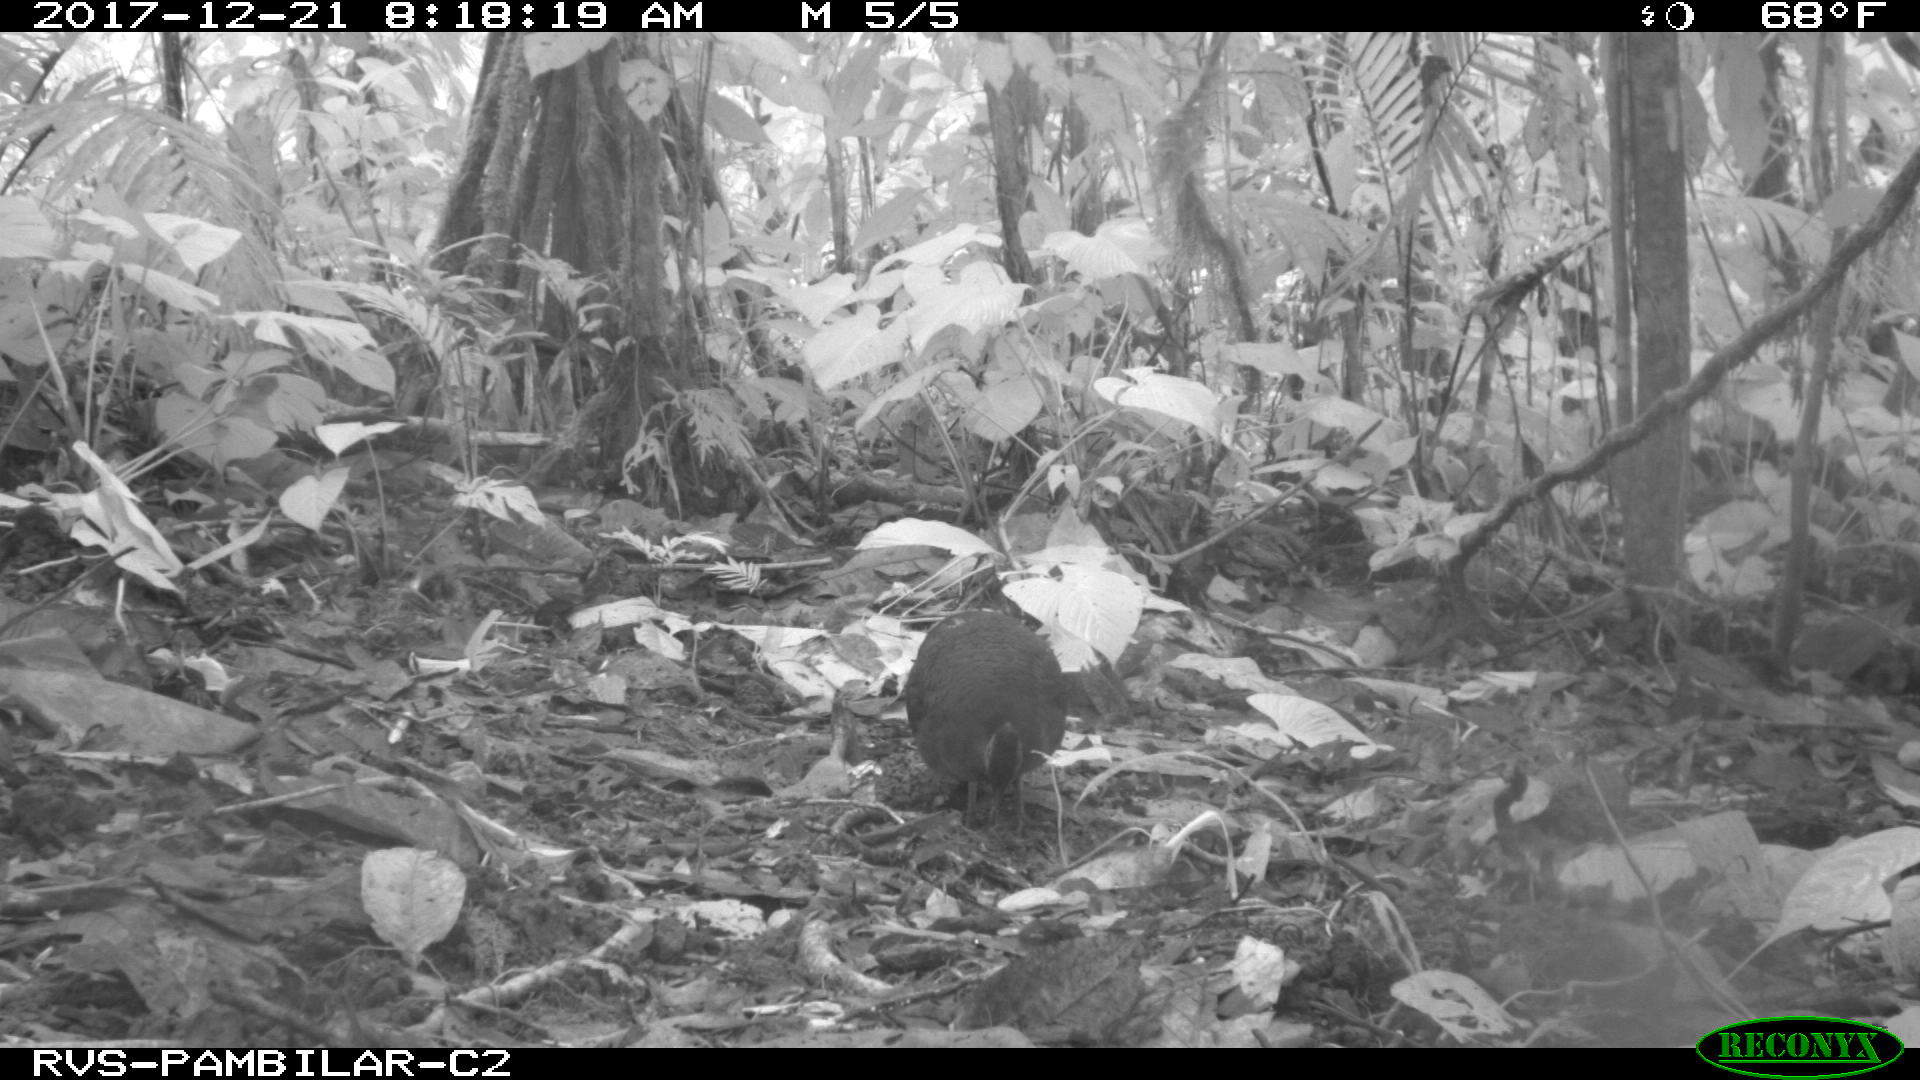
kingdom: Animalia
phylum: Chordata
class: Aves
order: Tinamiformes
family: Tinamidae
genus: Tinamus
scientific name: Tinamus major
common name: Great tinamou
